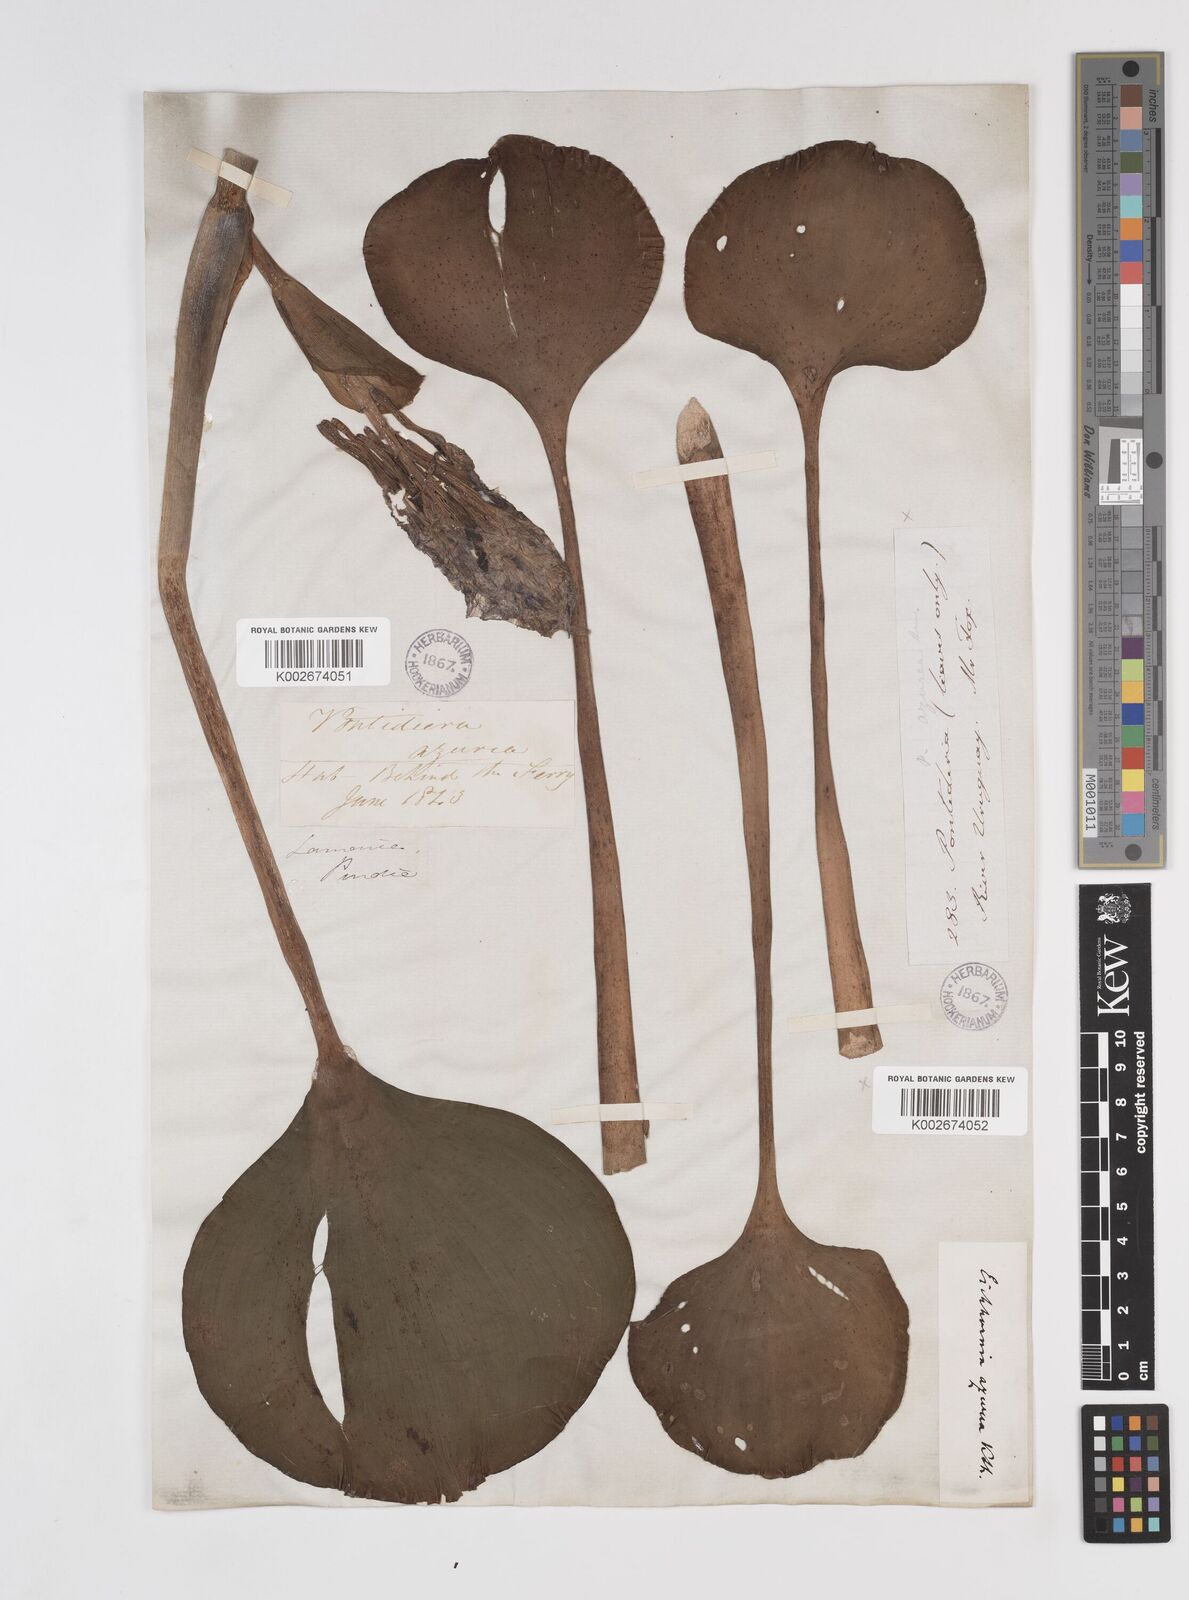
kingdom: Plantae
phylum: Tracheophyta
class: Liliopsida
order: Commelinales
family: Pontederiaceae
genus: Pontederia
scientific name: Pontederia azurea
